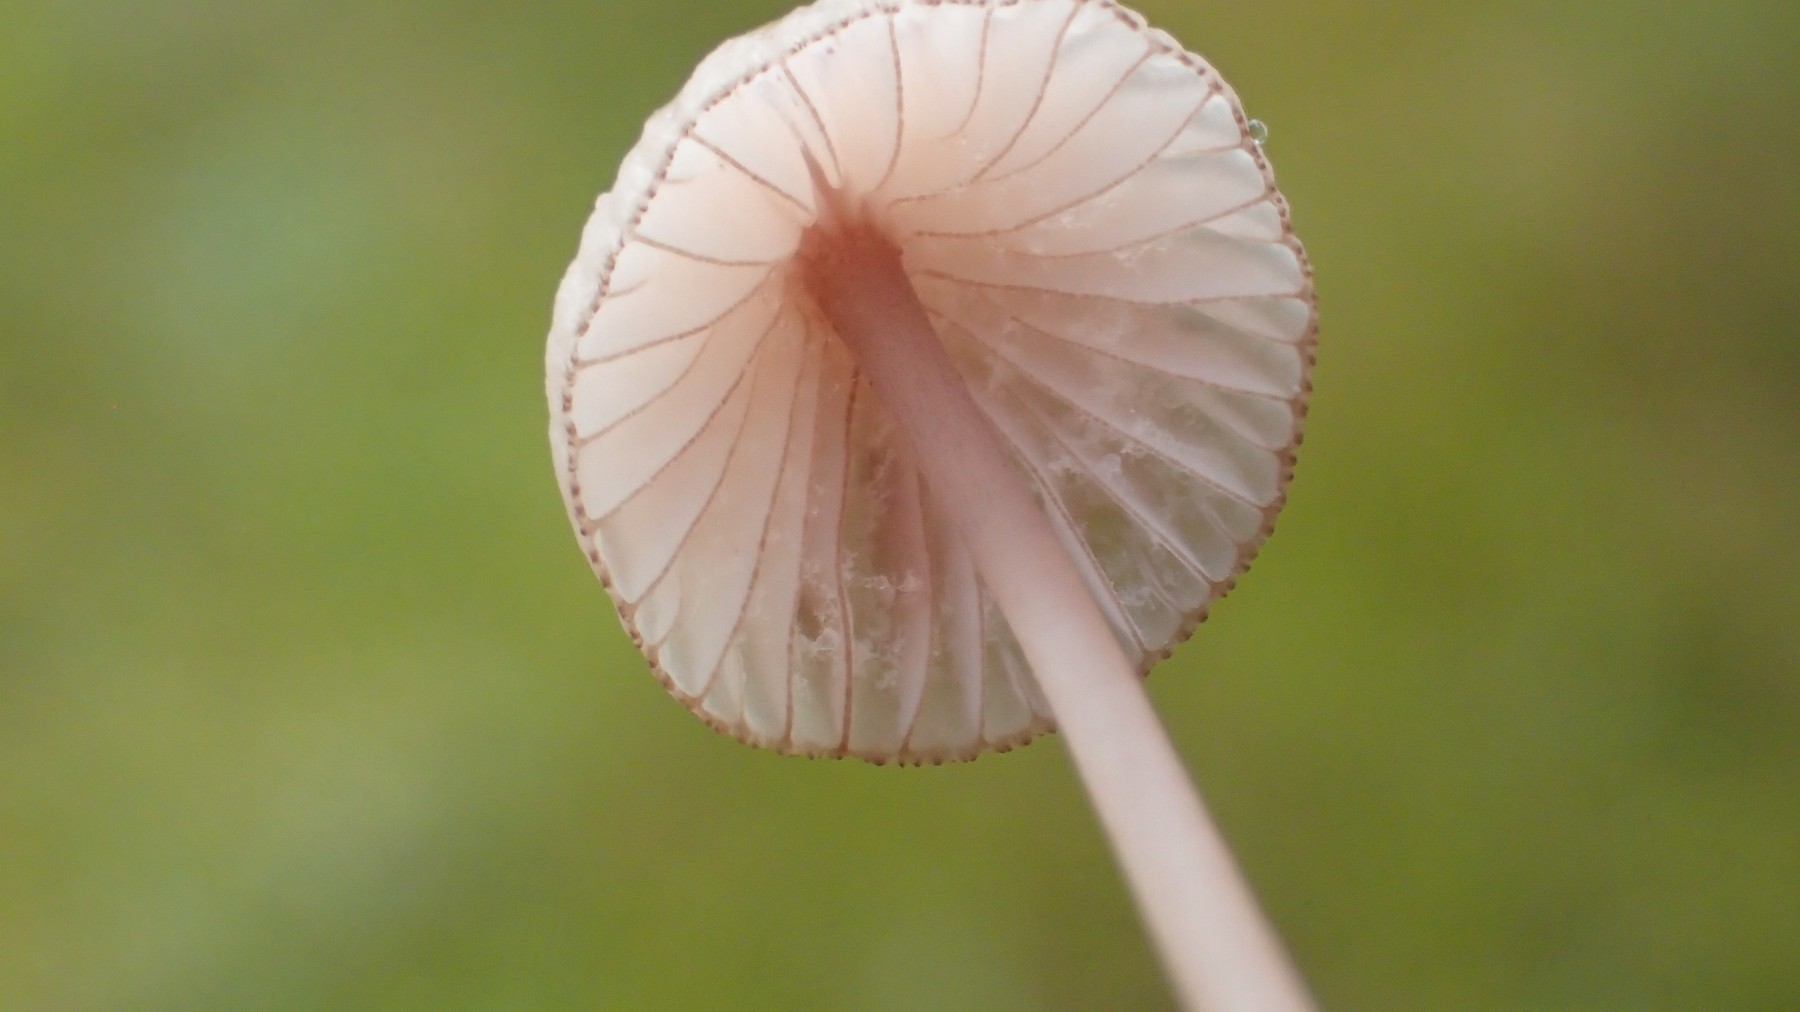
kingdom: Fungi
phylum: Basidiomycota
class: Agaricomycetes
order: Agaricales
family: Mycenaceae
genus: Mycena
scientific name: Mycena sanguinolenta
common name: rødmælket huesvamp
